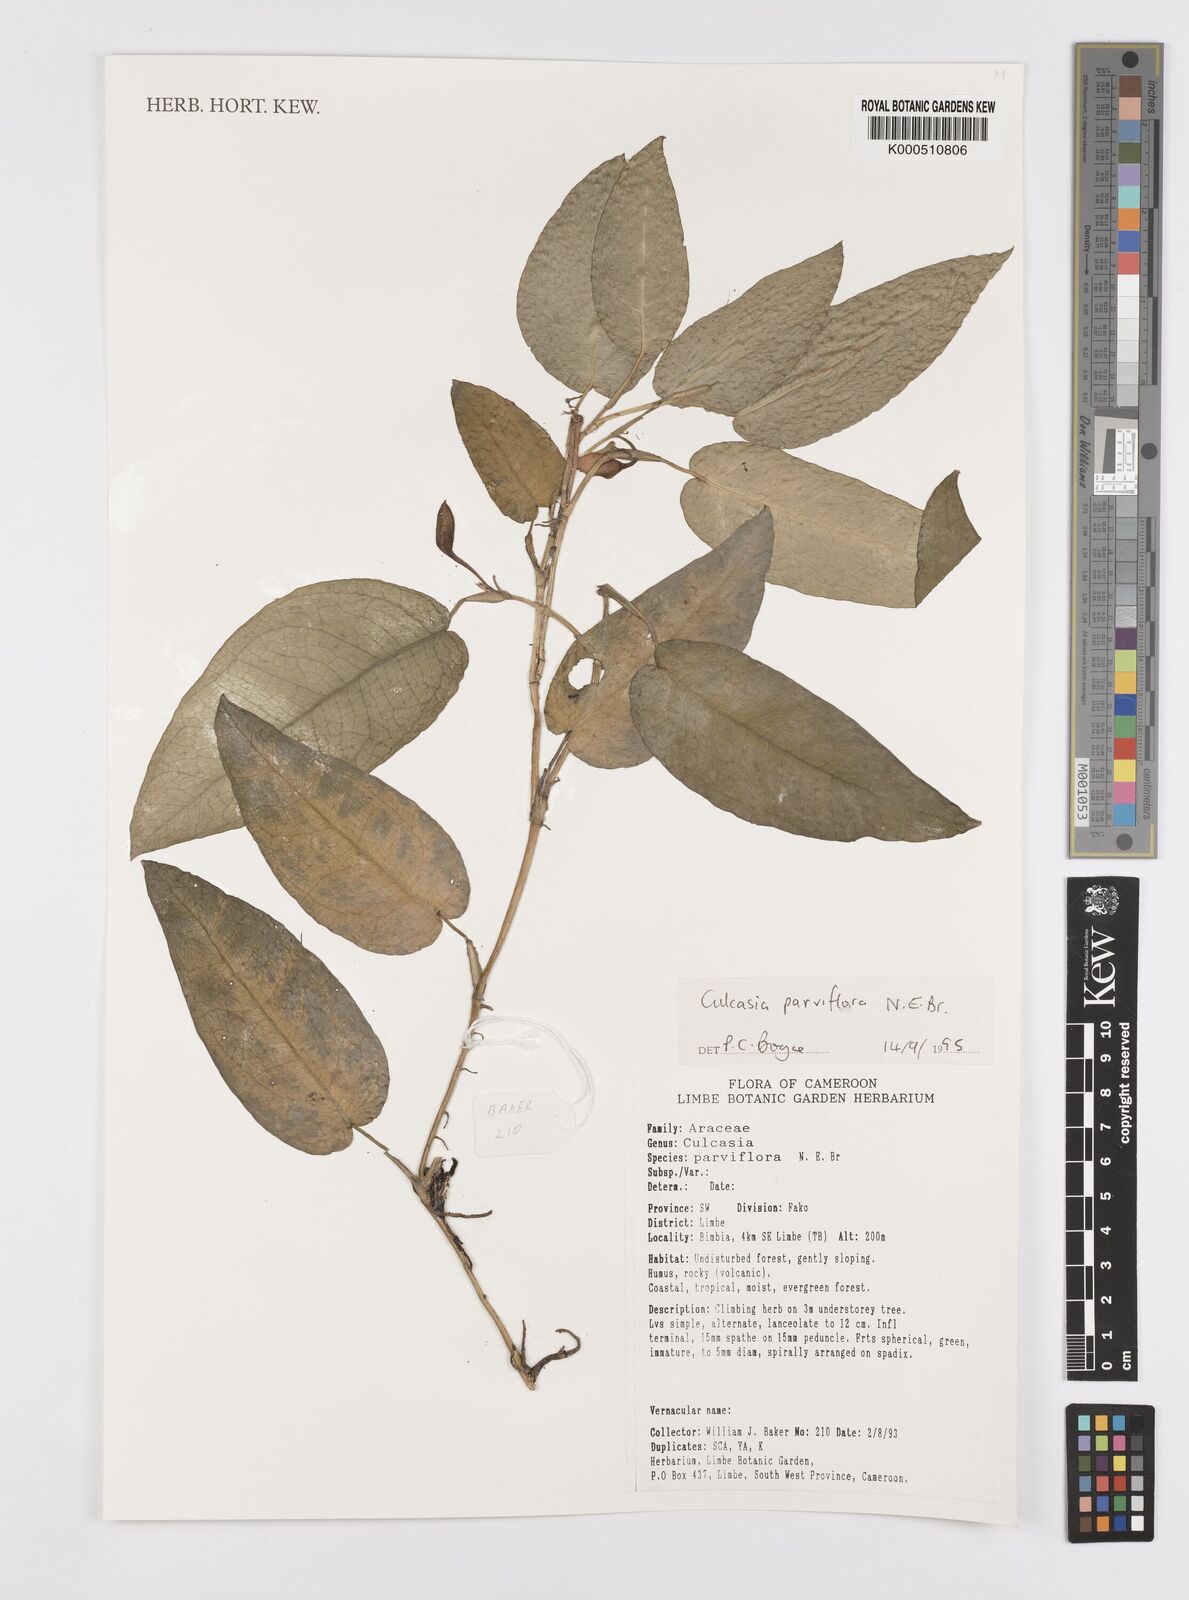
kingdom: Plantae
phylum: Tracheophyta
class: Liliopsida
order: Alismatales
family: Araceae
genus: Culcasia
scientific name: Culcasia parviflora
